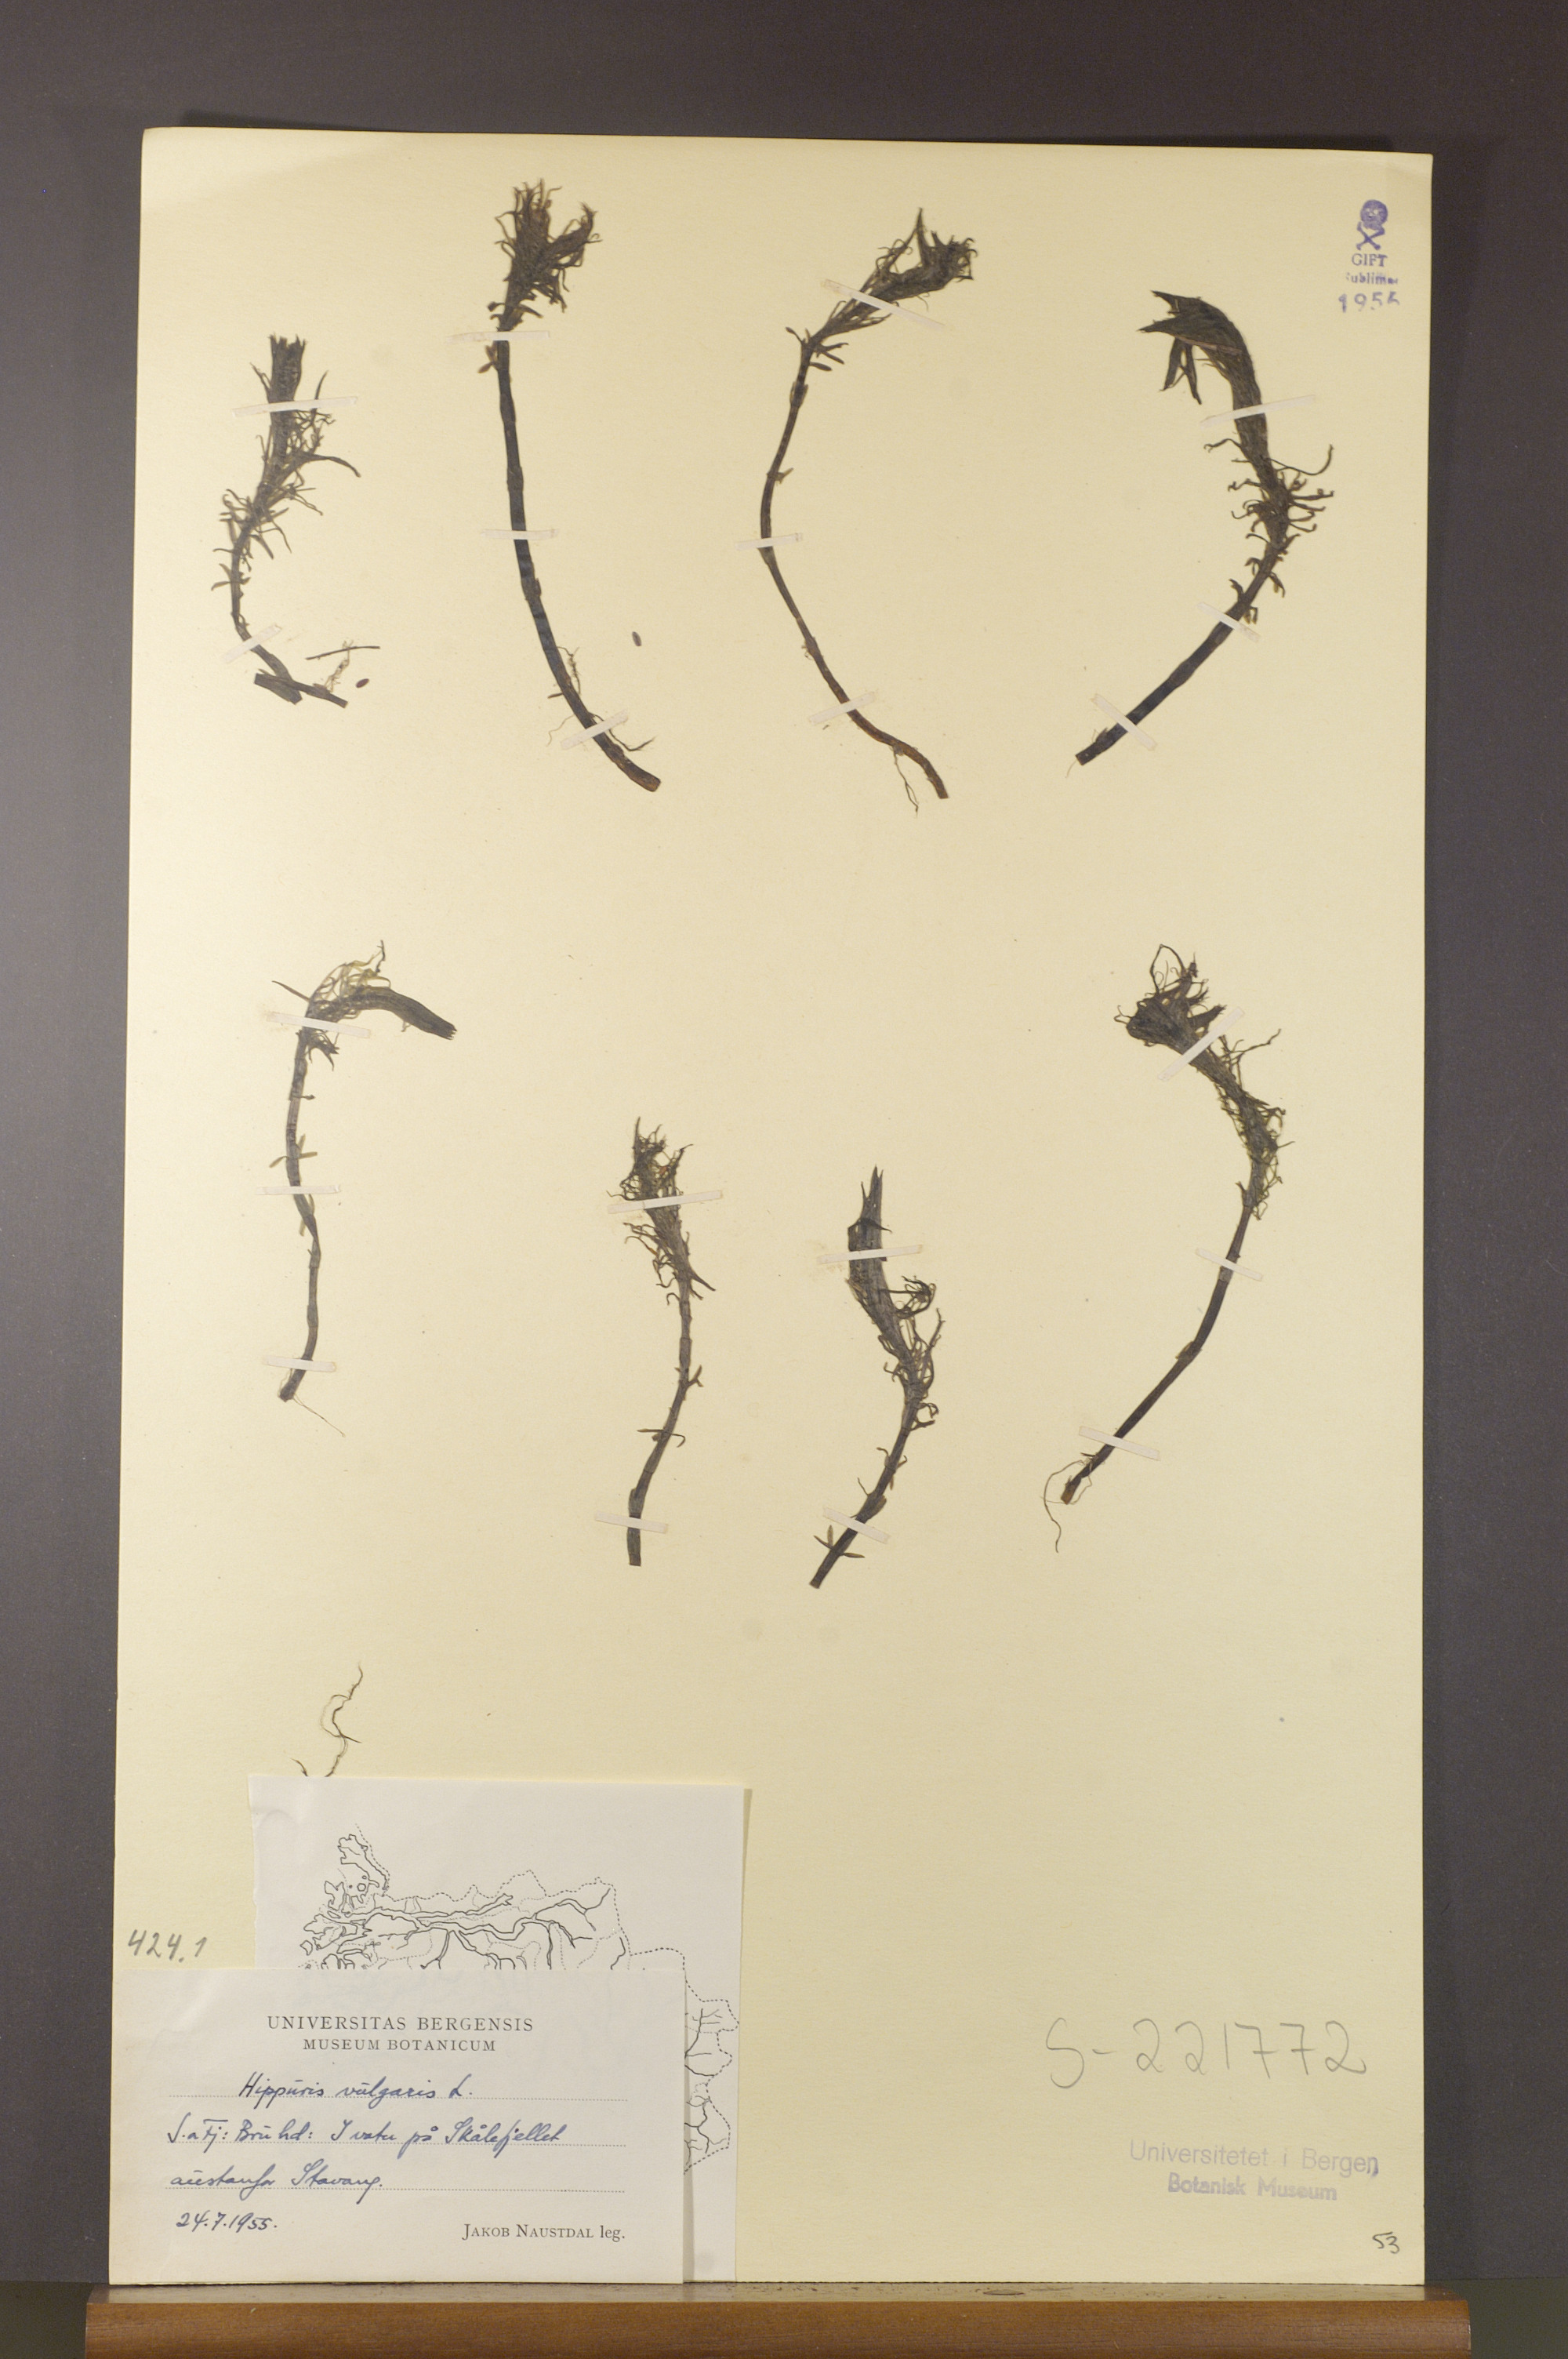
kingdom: Plantae
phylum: Tracheophyta
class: Magnoliopsida
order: Lamiales
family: Plantaginaceae
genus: Hippuris
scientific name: Hippuris vulgaris
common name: Mare's-tail
